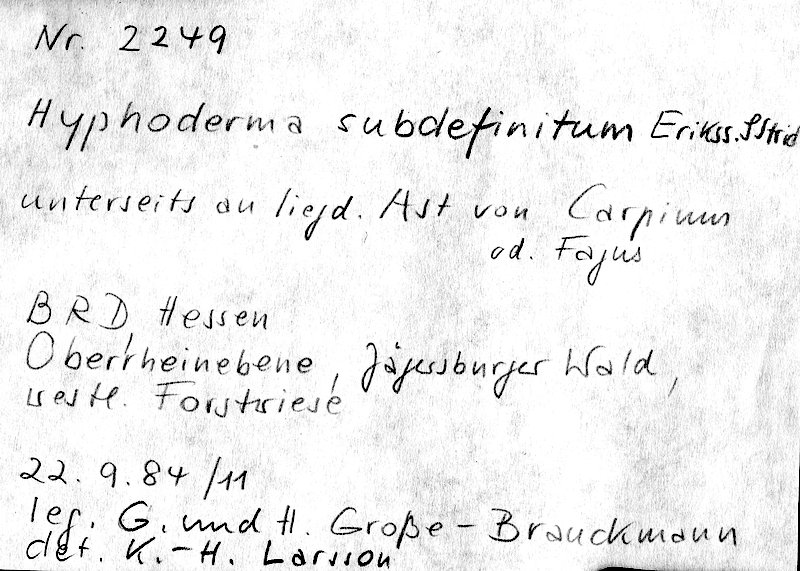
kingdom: Fungi
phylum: Basidiomycota
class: Agaricomycetes
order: Polyporales
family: Hyphodermataceae
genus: Hyphoderma
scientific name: Hyphoderma occidentale
